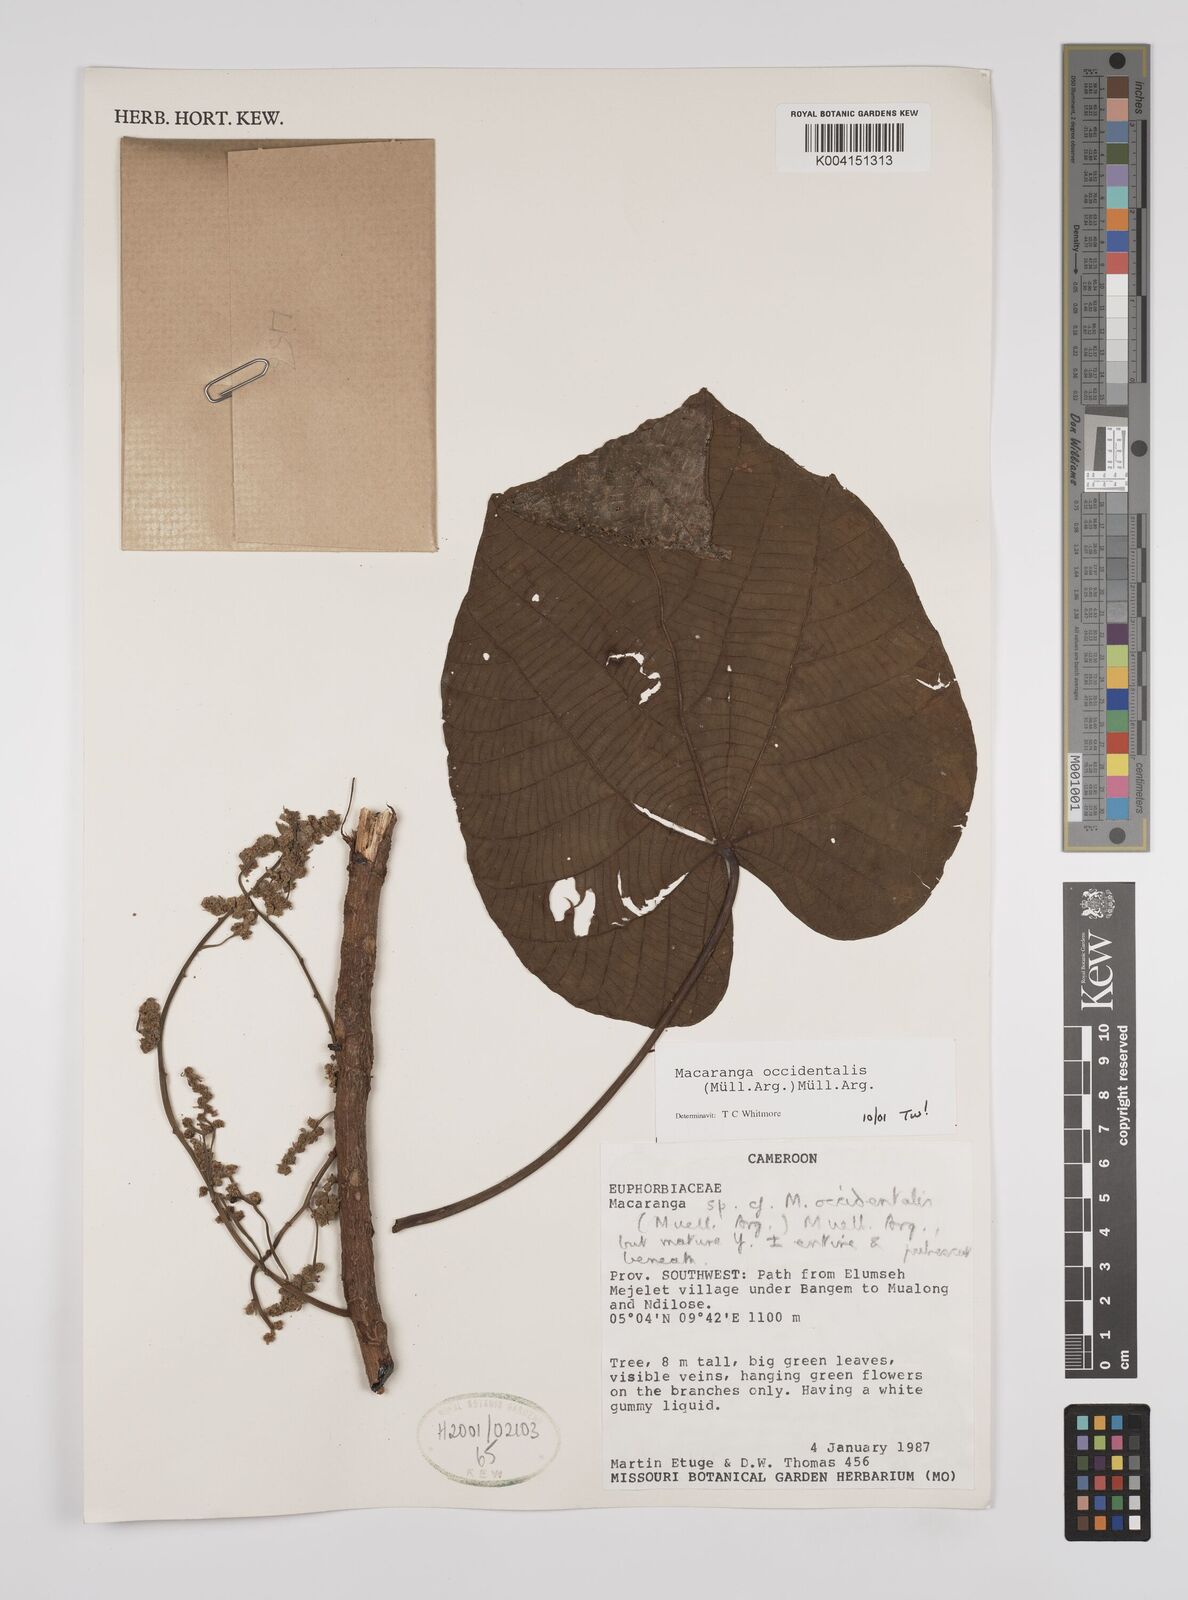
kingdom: Plantae
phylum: Tracheophyta
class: Magnoliopsida
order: Malpighiales
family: Euphorbiaceae
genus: Macaranga
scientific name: Macaranga occidentalis
